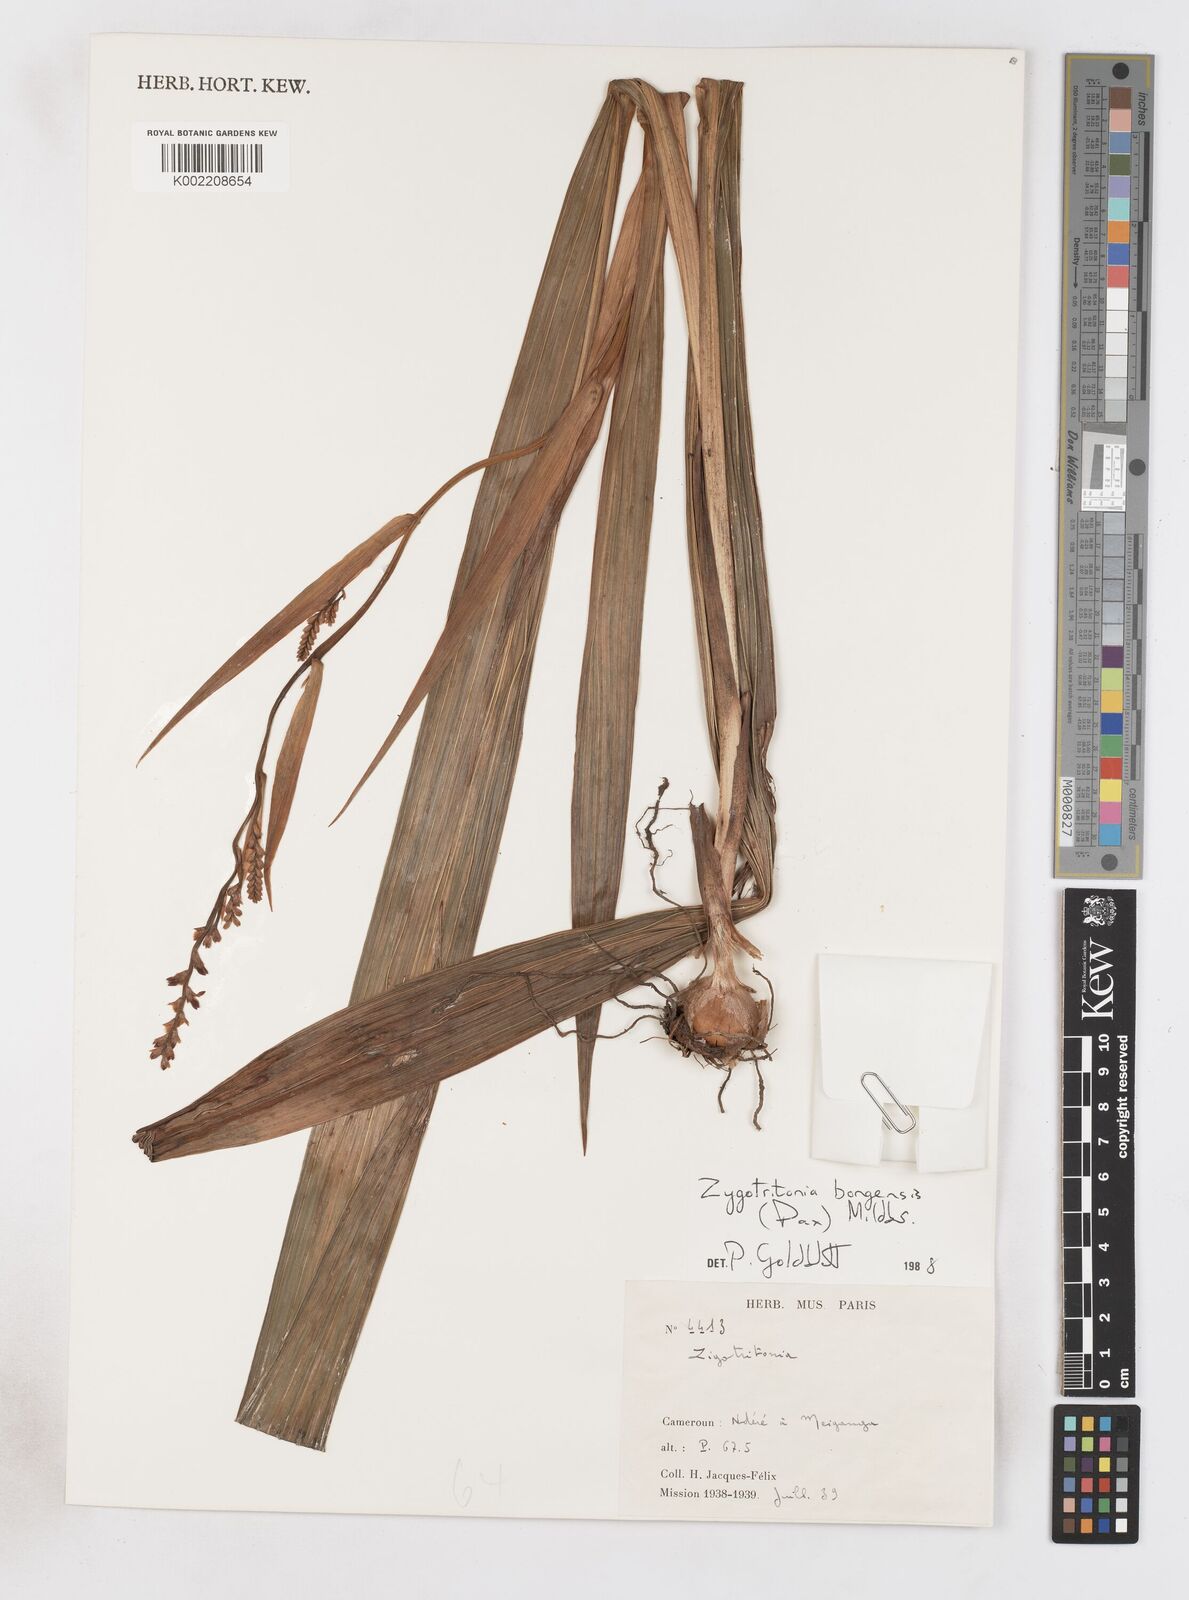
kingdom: Plantae
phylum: Tracheophyta
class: Liliopsida
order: Asparagales
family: Iridaceae
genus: Zygotritonia
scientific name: Zygotritonia bongensis
